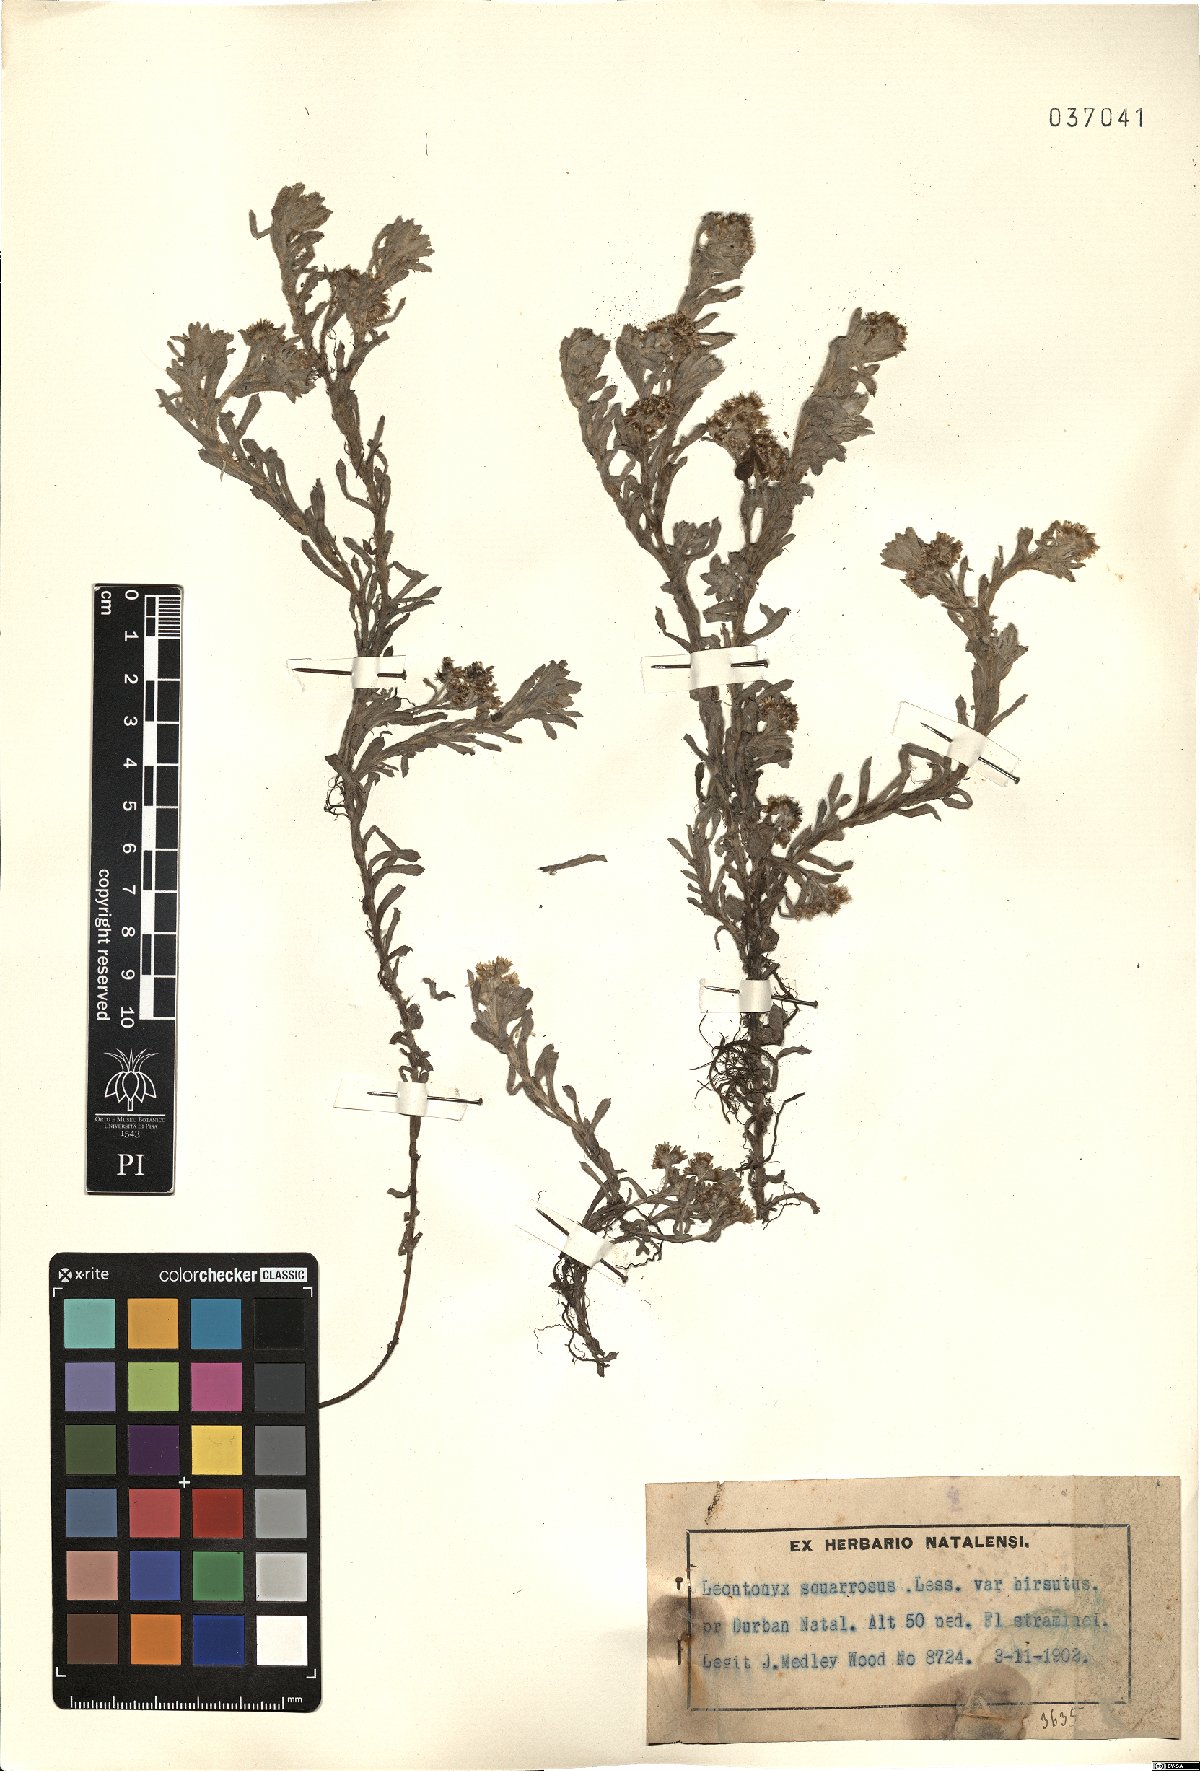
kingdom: Plantae
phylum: Tracheophyta
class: Magnoliopsida
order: Asterales
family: Asteraceae
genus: Helichrysum
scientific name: Helichrysum spiralepis
